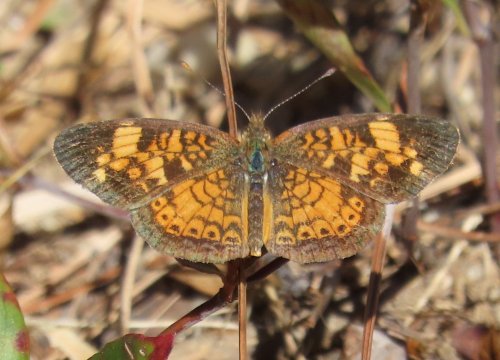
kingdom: Animalia
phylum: Arthropoda
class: Insecta
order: Lepidoptera
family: Nymphalidae
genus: Phyciodes
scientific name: Phyciodes tharos
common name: Pearl Crescent
